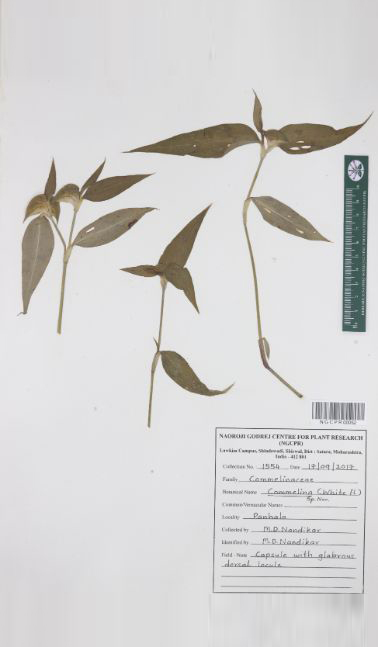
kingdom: Plantae
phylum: Tracheophyta
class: Liliopsida
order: Commelinales
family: Commelinaceae
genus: Commelina
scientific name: Commelina undulata
